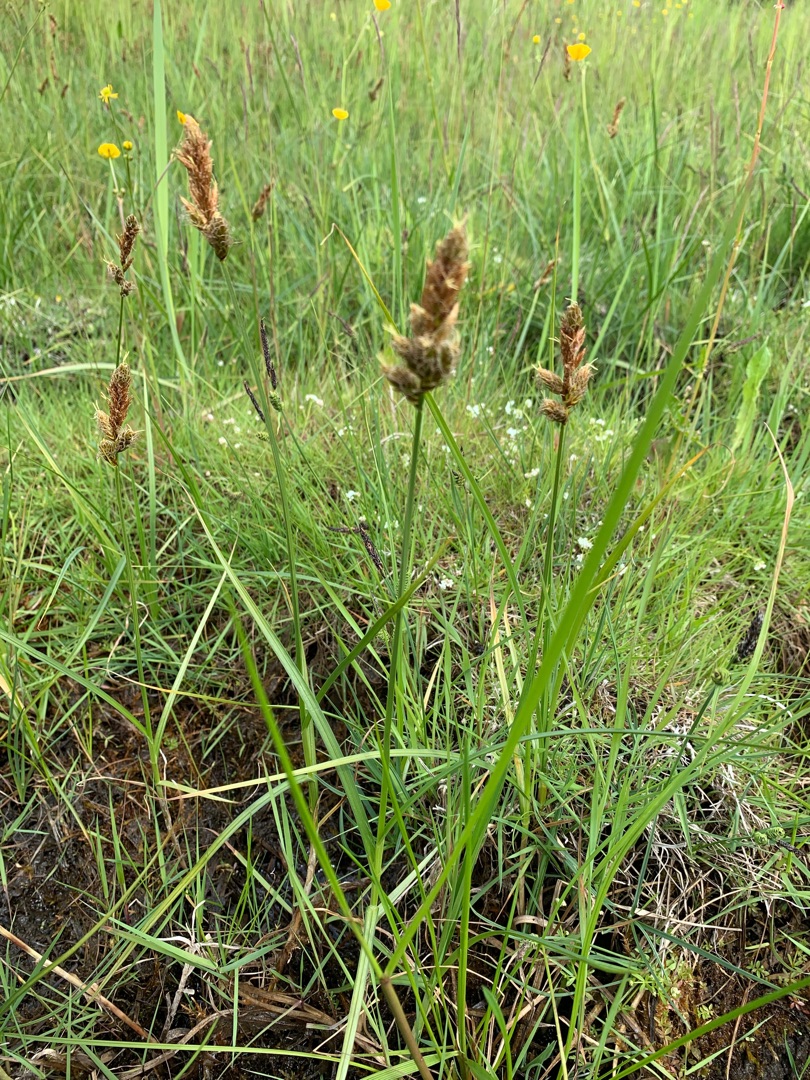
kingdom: Plantae
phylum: Tracheophyta
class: Liliopsida
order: Poales
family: Cyperaceae
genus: Carex
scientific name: Carex disticha
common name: Toradet star
